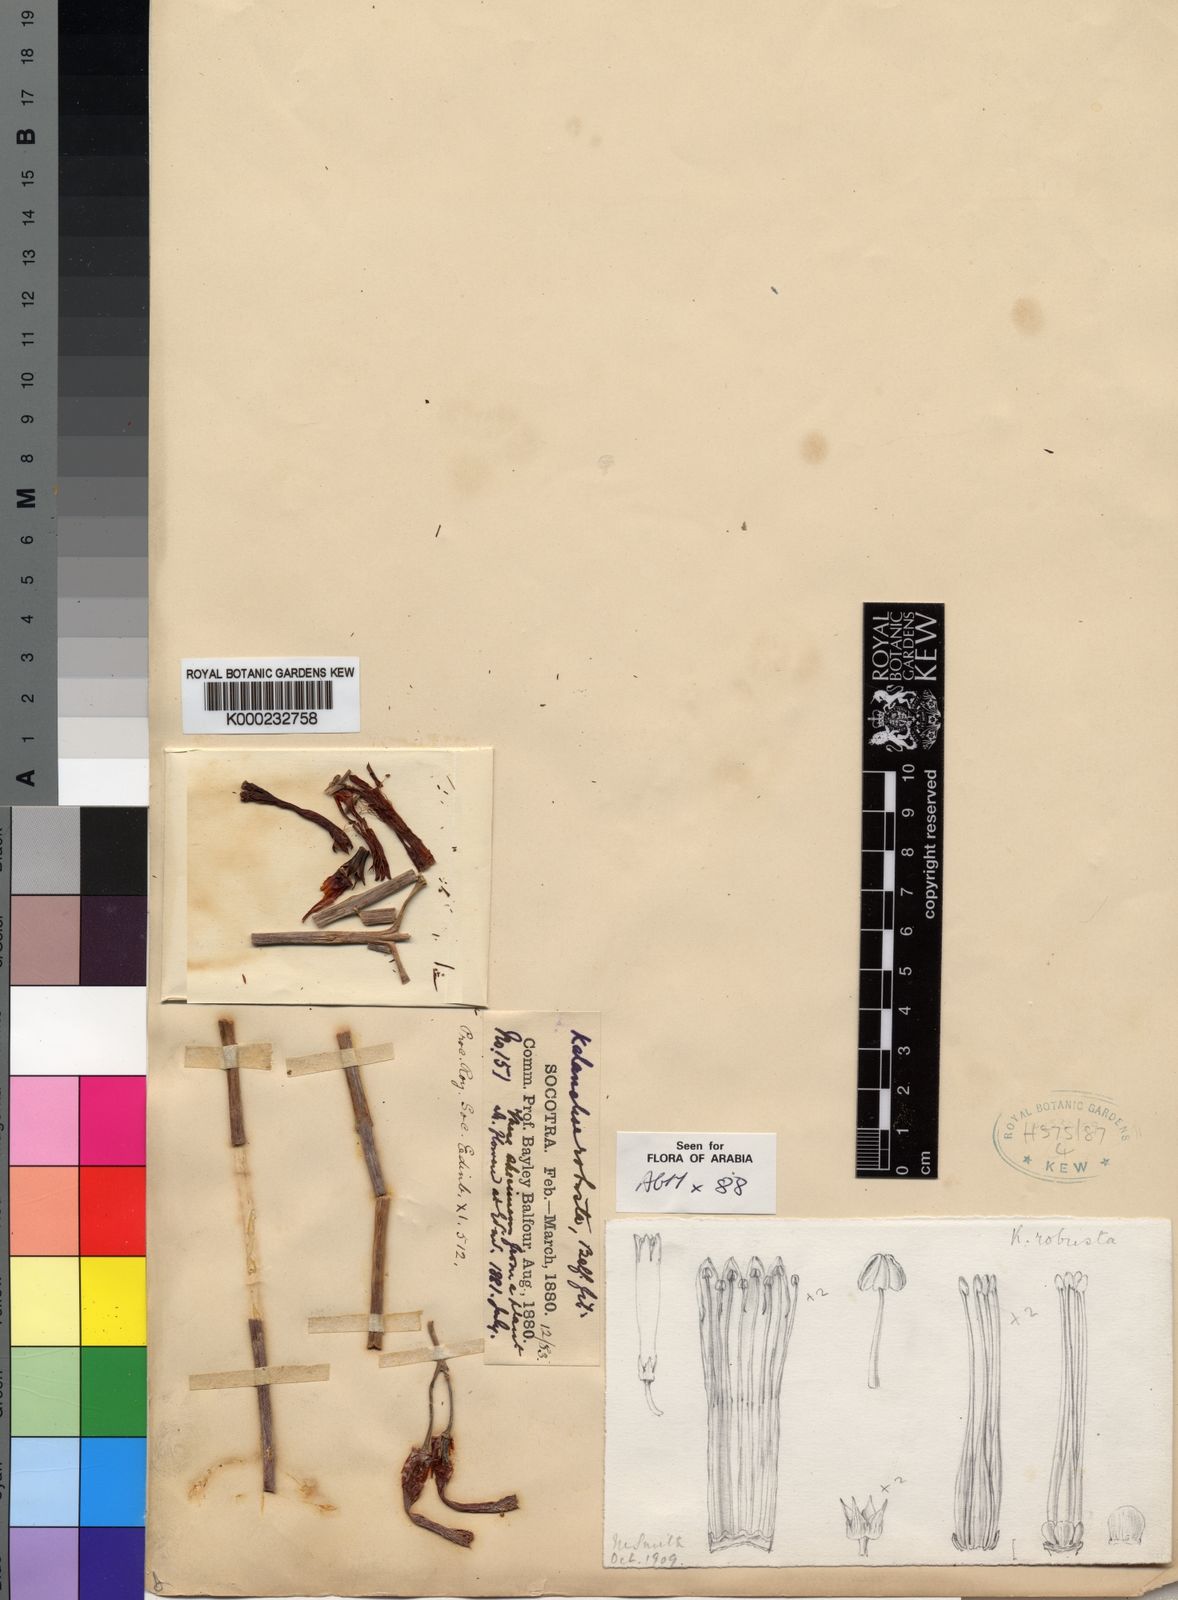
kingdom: Plantae
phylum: Tracheophyta
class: Magnoliopsida
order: Saxifragales
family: Crassulaceae
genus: Kalanchoe
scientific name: Kalanchoe robusta
